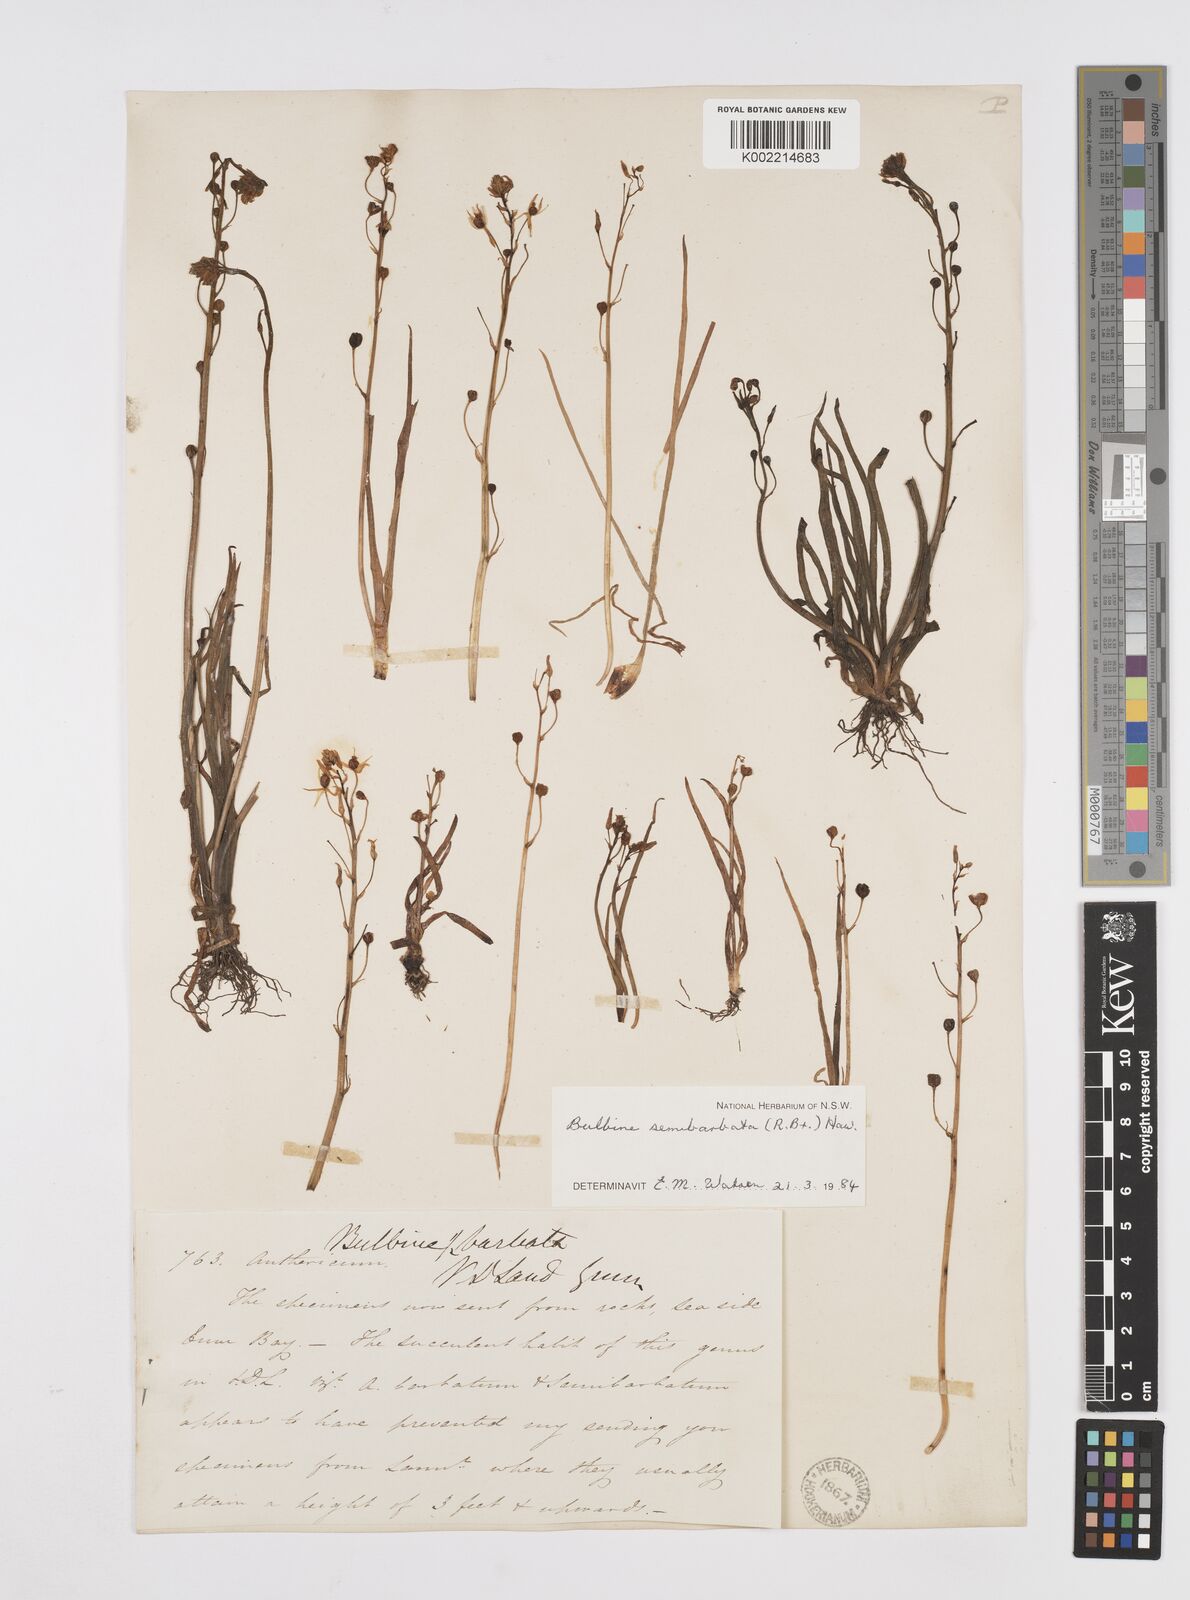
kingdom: Plantae
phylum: Tracheophyta
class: Liliopsida
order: Asparagales
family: Asphodelaceae
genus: Bulbine
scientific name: Bulbine semibarbata
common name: Leek lily
